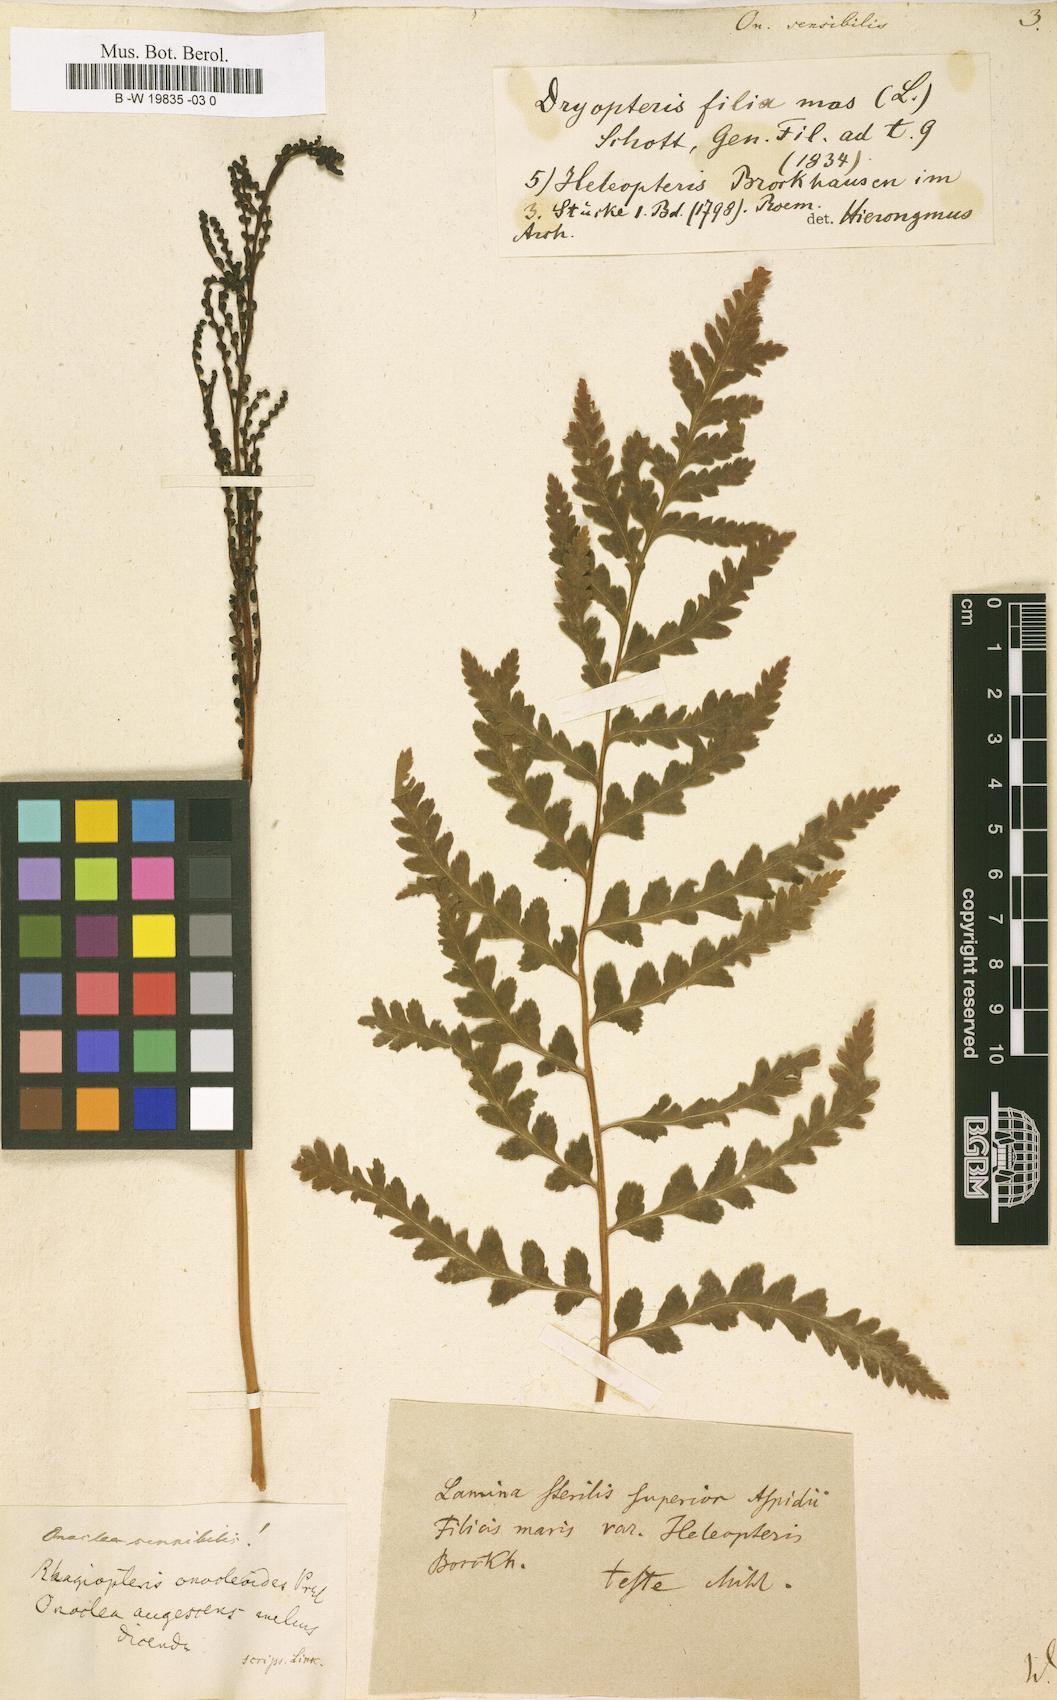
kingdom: Plantae
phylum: Tracheophyta
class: Polypodiopsida
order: Polypodiales
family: Onocleaceae
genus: Onoclea
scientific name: Onoclea sensibilis
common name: Sensitive fern
